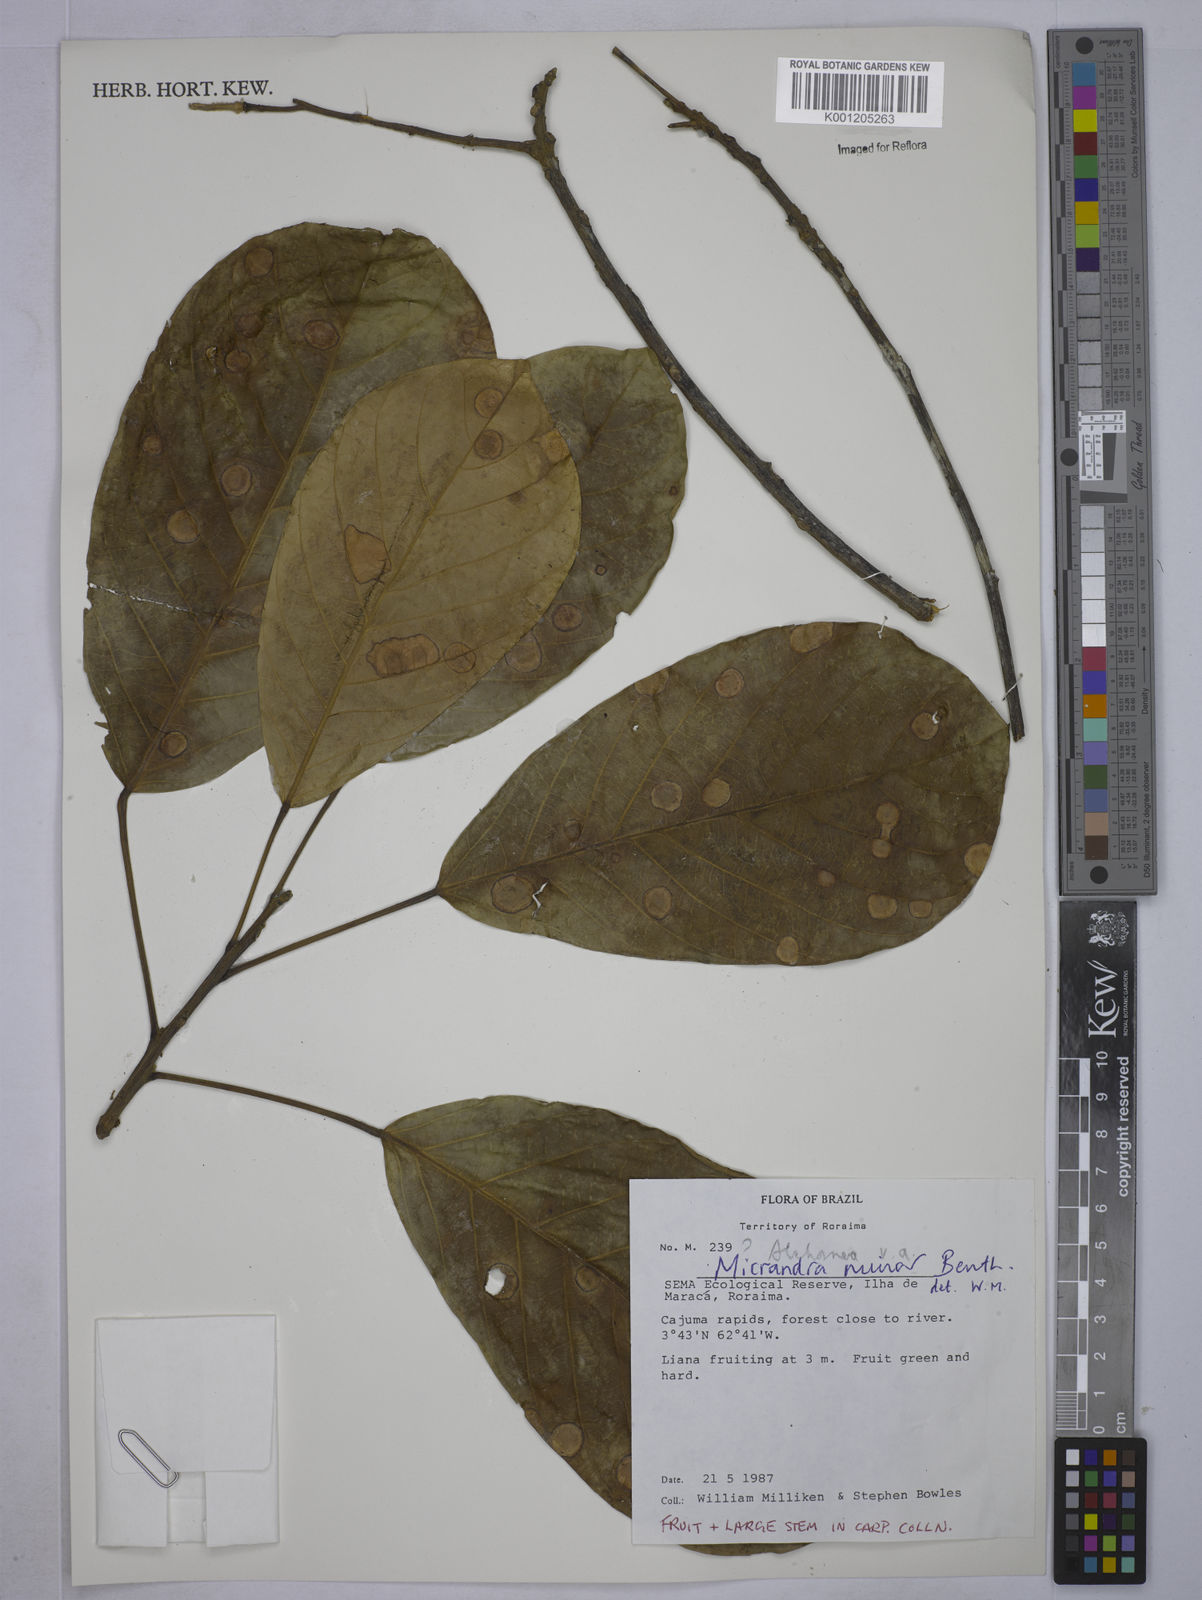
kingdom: Plantae
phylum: Tracheophyta
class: Magnoliopsida
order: Malpighiales
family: Euphorbiaceae
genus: Micrandra
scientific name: Micrandra minor
